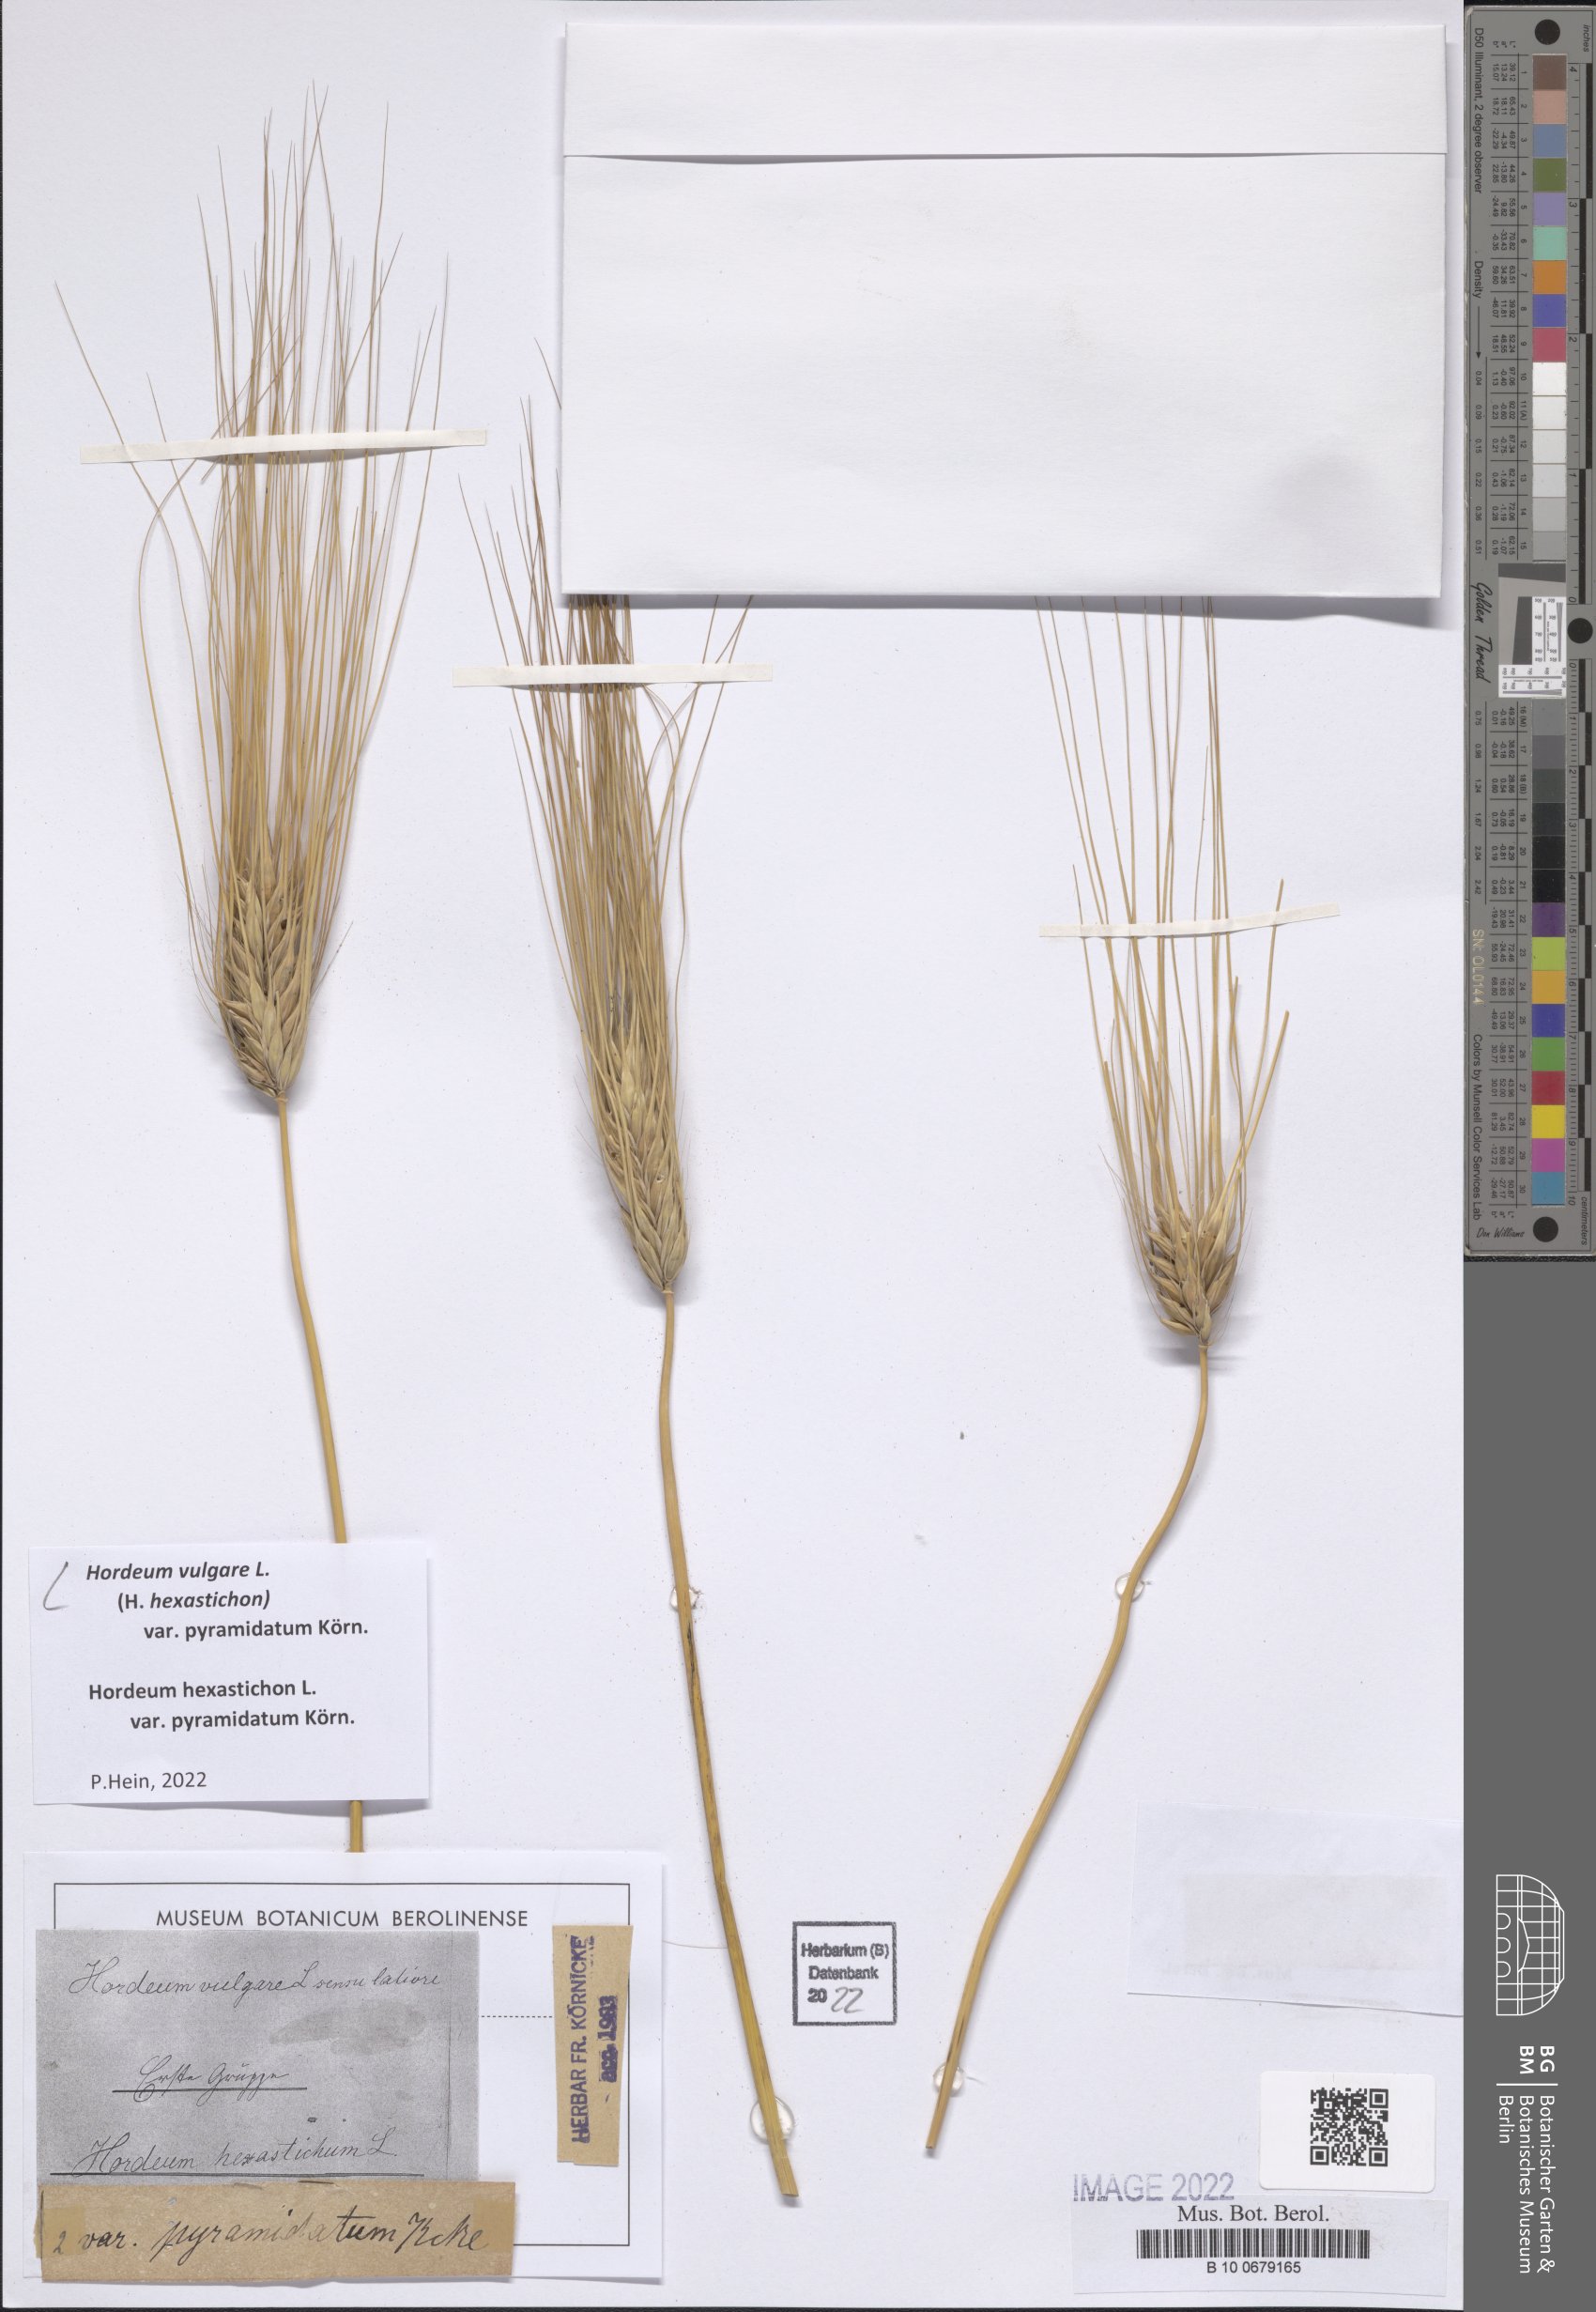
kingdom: Plantae
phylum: Tracheophyta
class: Liliopsida
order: Poales
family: Poaceae
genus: Hordeum
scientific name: Hordeum vulgare
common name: Common barley
